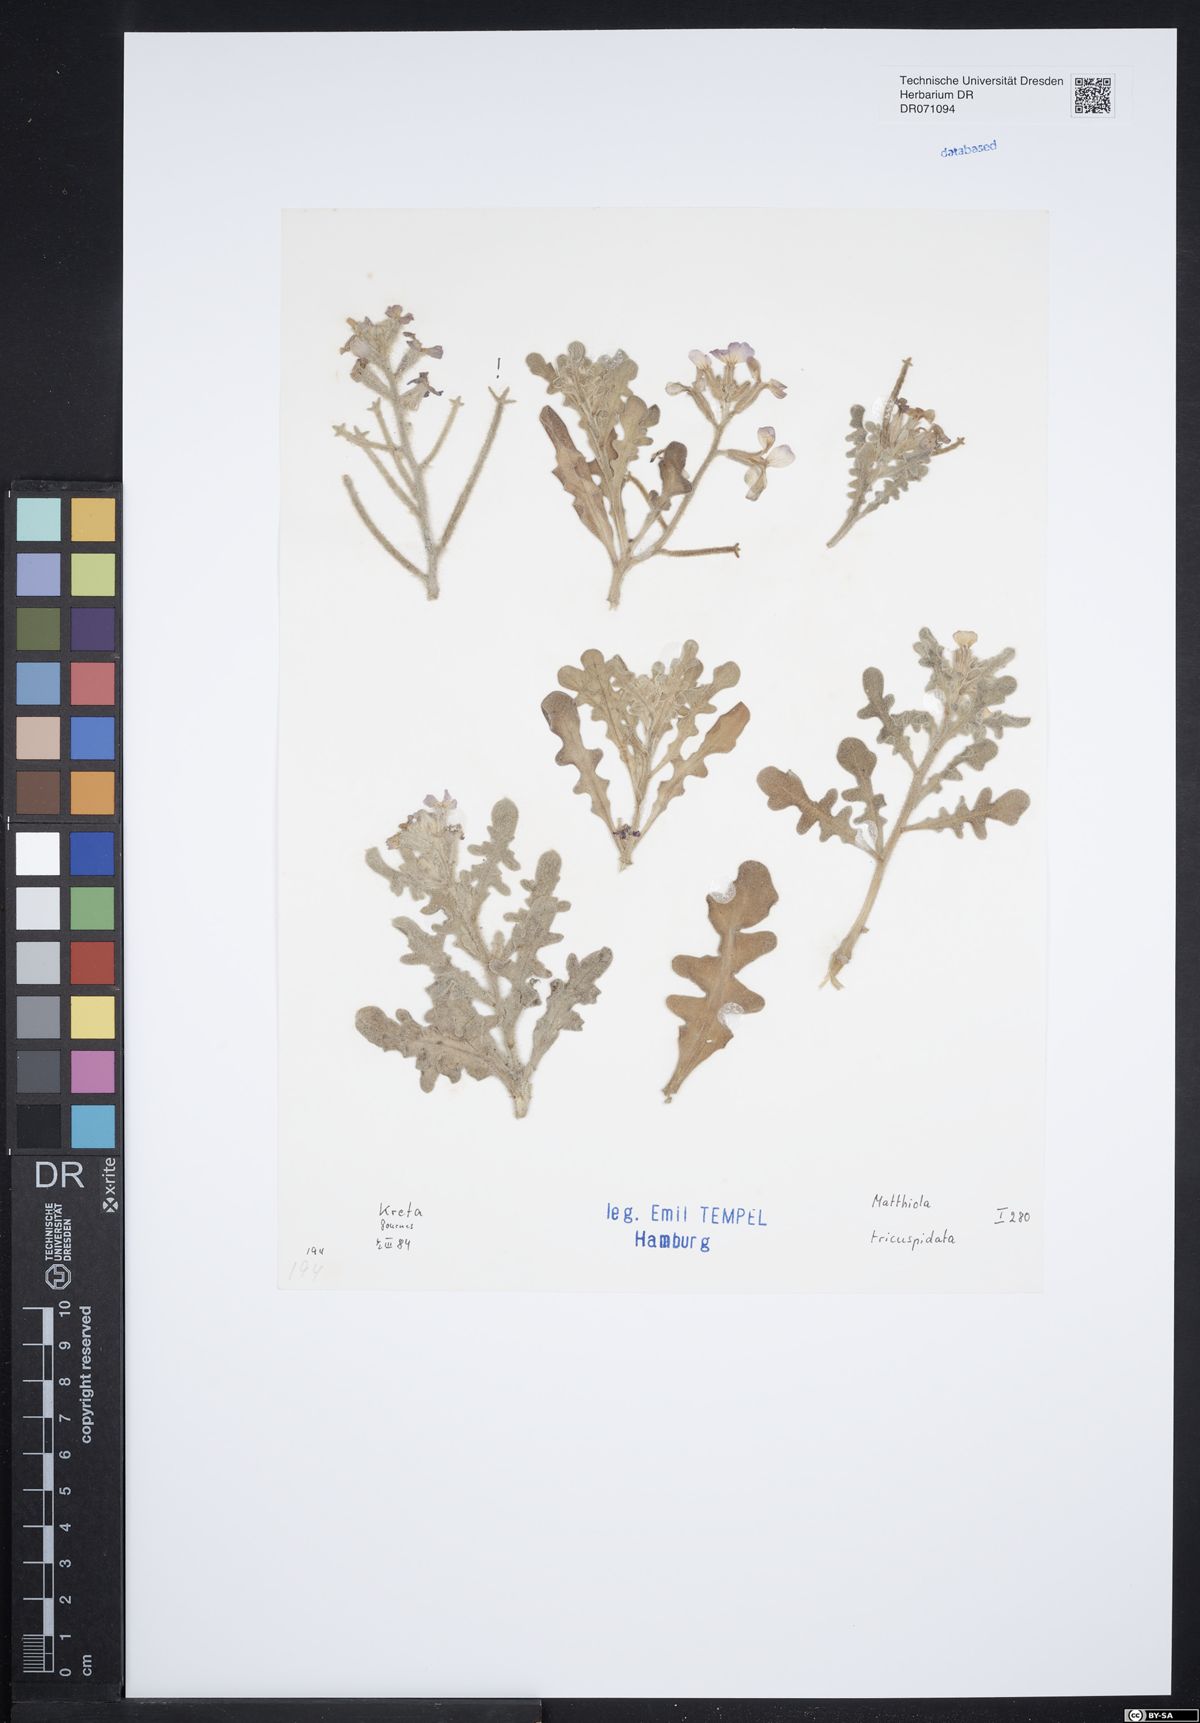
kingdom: Plantae
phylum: Tracheophyta
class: Magnoliopsida
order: Brassicales
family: Brassicaceae
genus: Matthiola
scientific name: Matthiola tricuspidata
